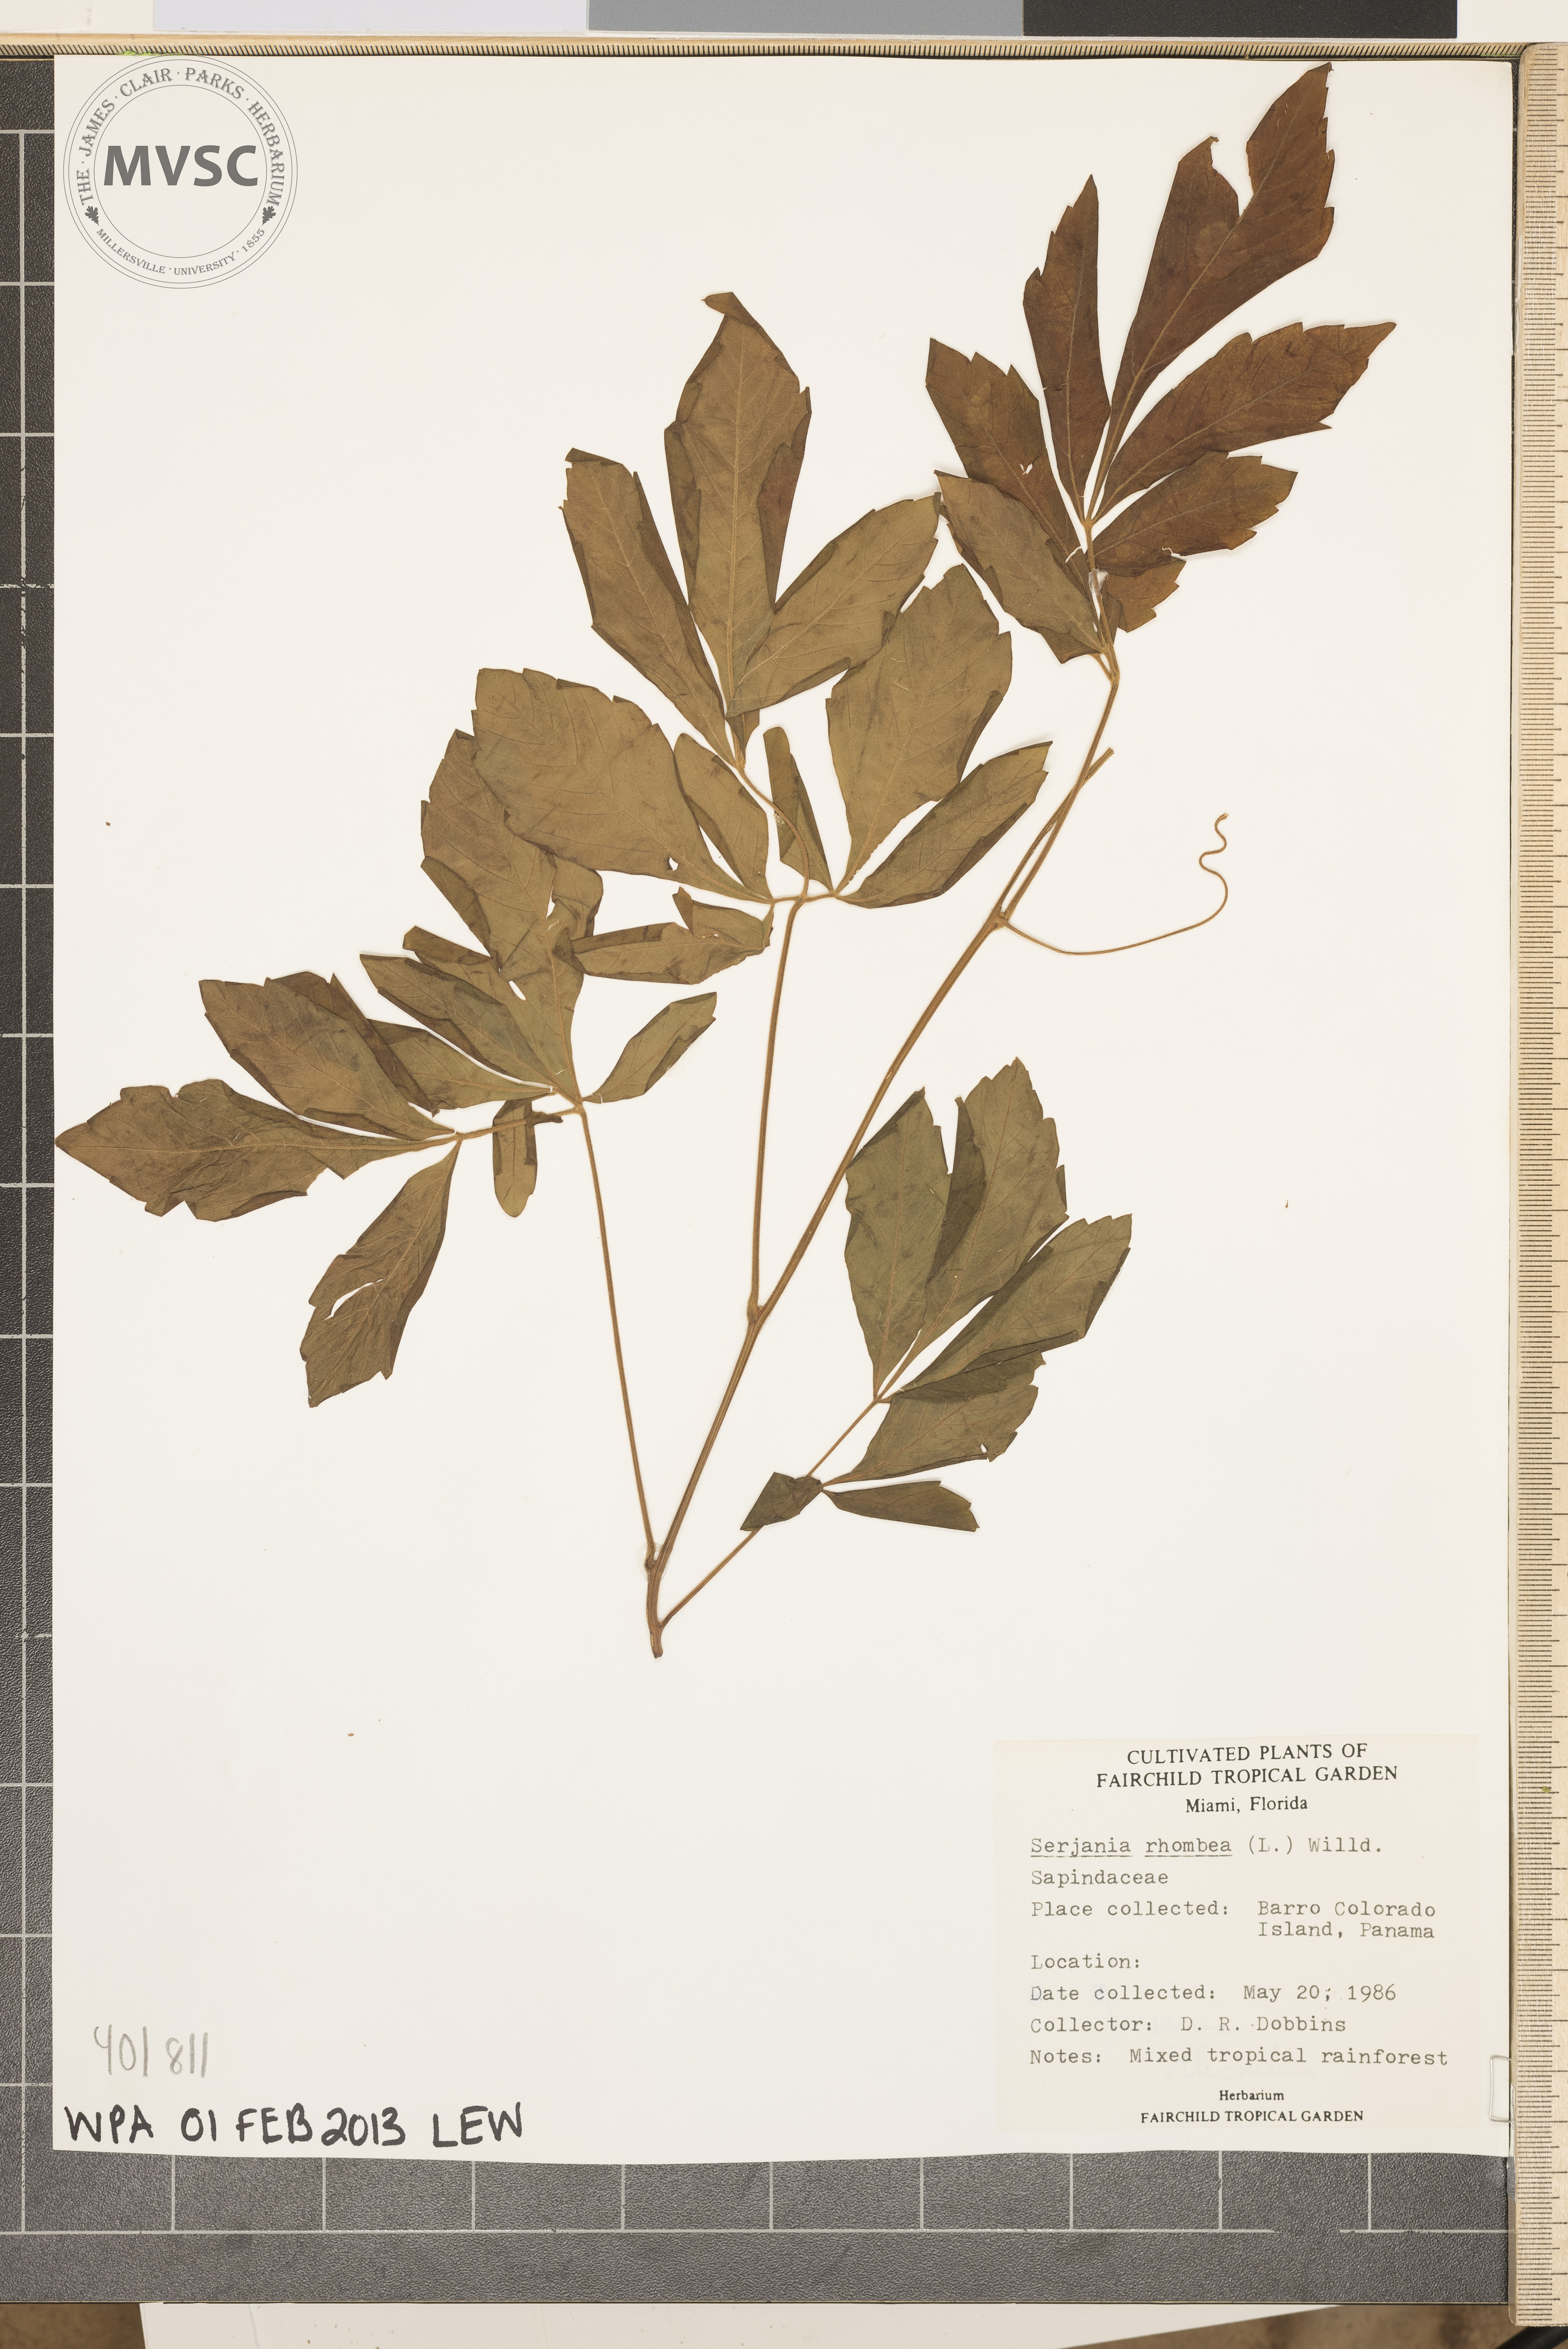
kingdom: Plantae
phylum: Tracheophyta
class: Magnoliopsida
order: Sapindales
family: Sapindaceae
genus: Serjania
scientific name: Serjania rhombea
